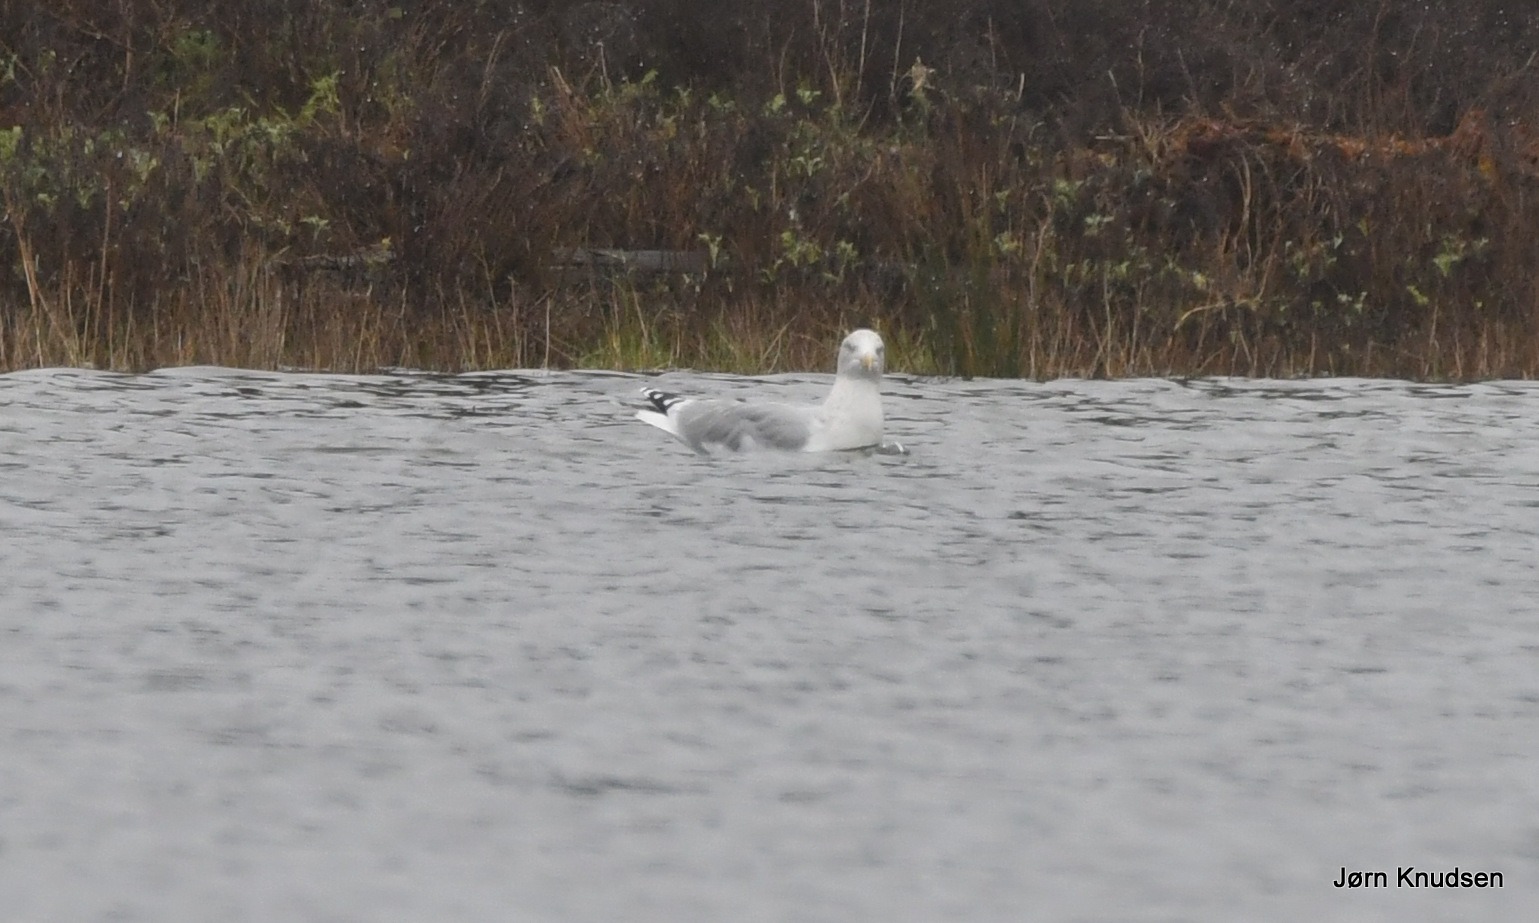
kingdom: Animalia
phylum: Chordata
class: Aves
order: Charadriiformes
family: Laridae
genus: Larus
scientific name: Larus argentatus
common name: Sølvmåge
